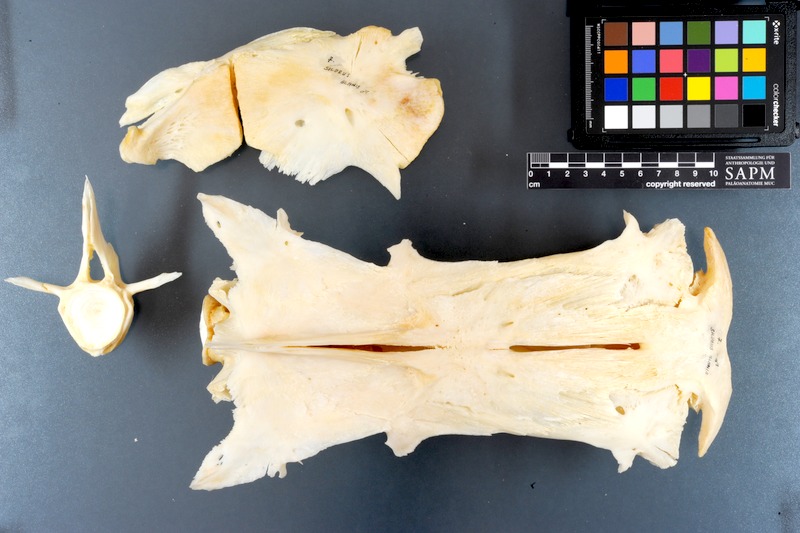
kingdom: Animalia
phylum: Chordata
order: Siluriformes
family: Siluridae
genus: Silurus
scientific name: Silurus glanis
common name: Wels
